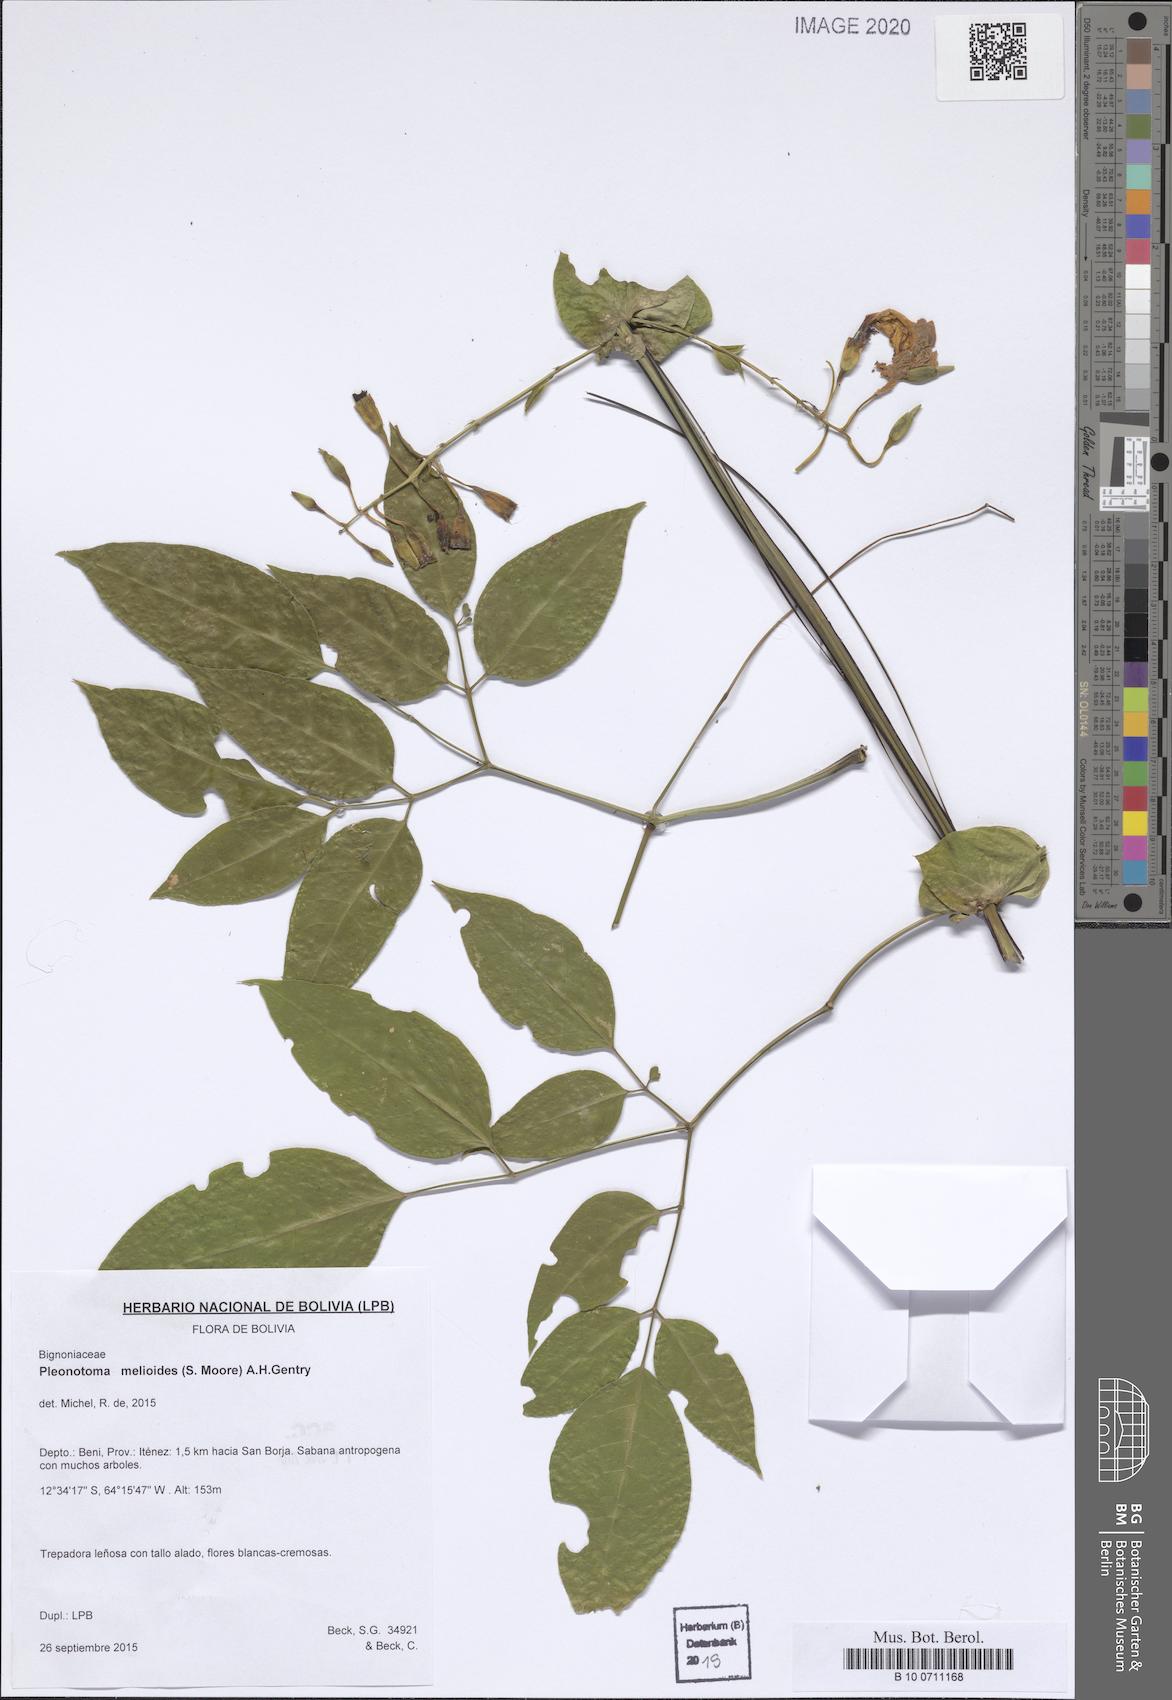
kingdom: Plantae
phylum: Tracheophyta
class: Magnoliopsida
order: Lamiales
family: Bignoniaceae
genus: Pleonotoma
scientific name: Pleonotoma melioides
